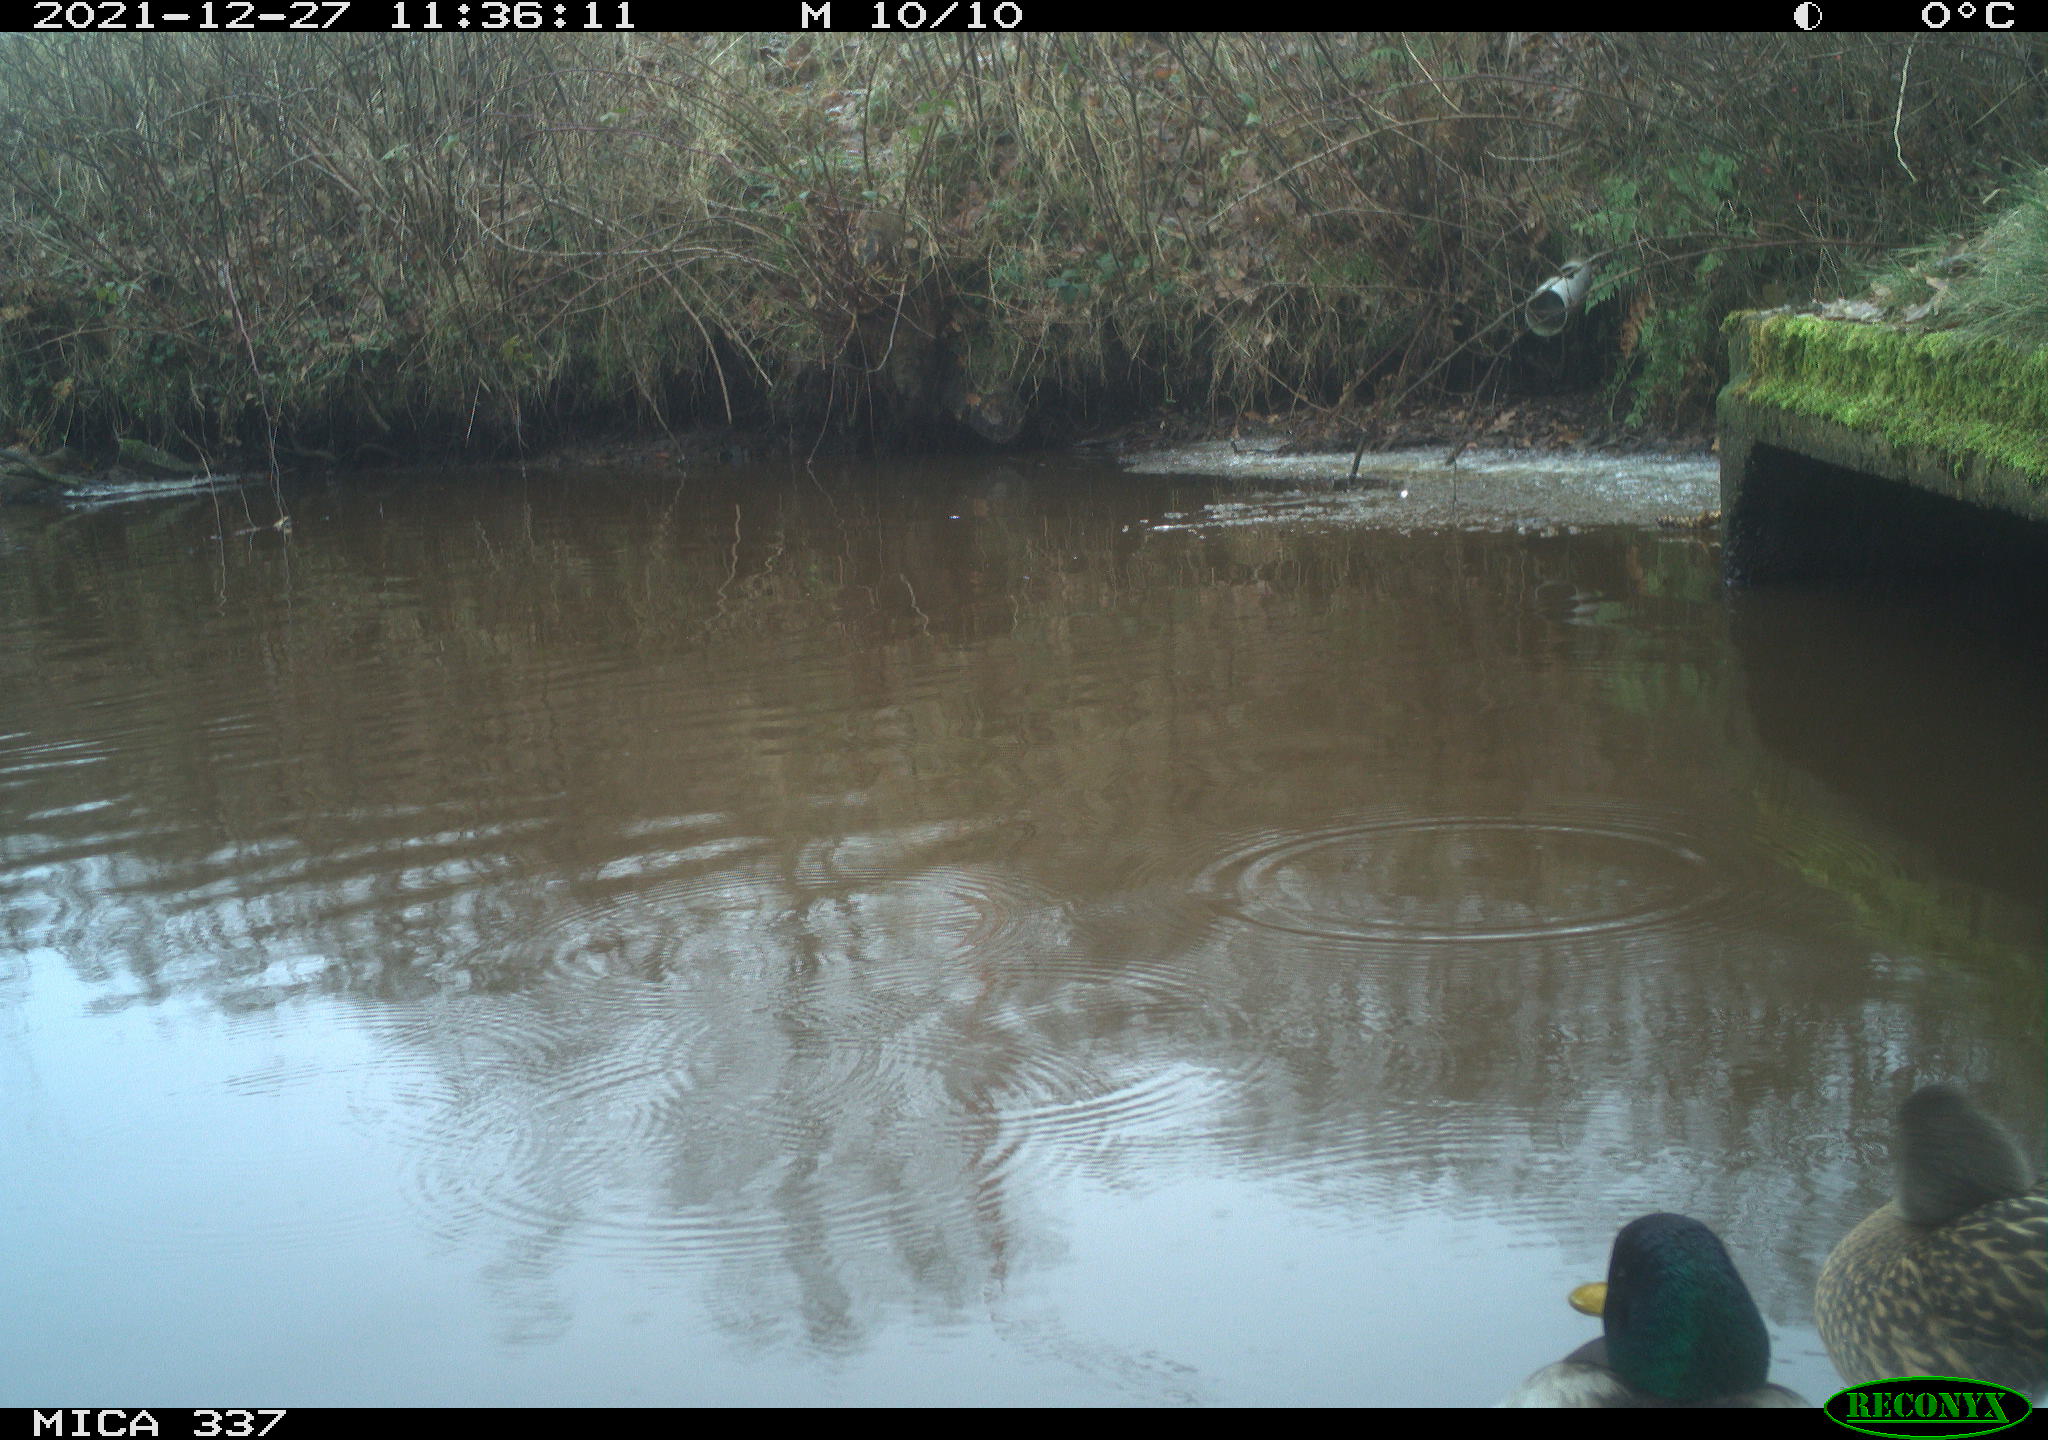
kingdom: Animalia
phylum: Chordata
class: Aves
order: Anseriformes
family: Anatidae
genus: Anas
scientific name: Anas platyrhynchos
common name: Mallard
